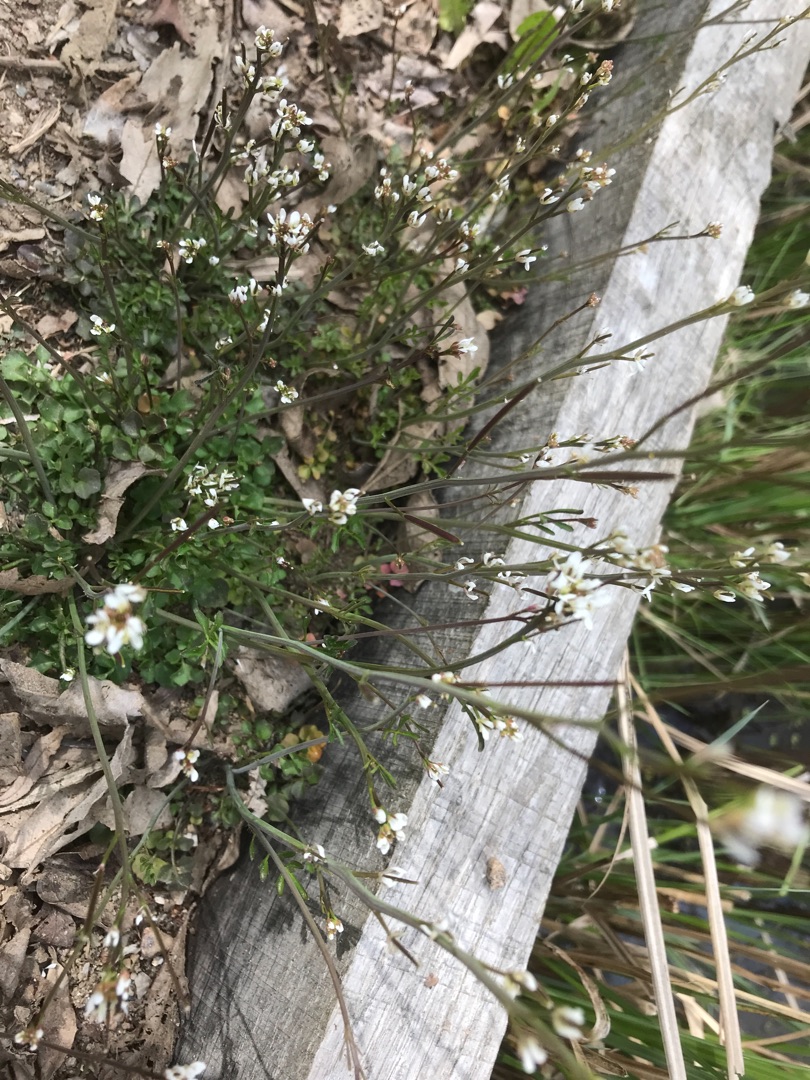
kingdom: Plantae
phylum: Tracheophyta
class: Magnoliopsida
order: Brassicales
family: Brassicaceae
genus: Cardamine
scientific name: Cardamine hirsuta
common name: Roset-springklap
